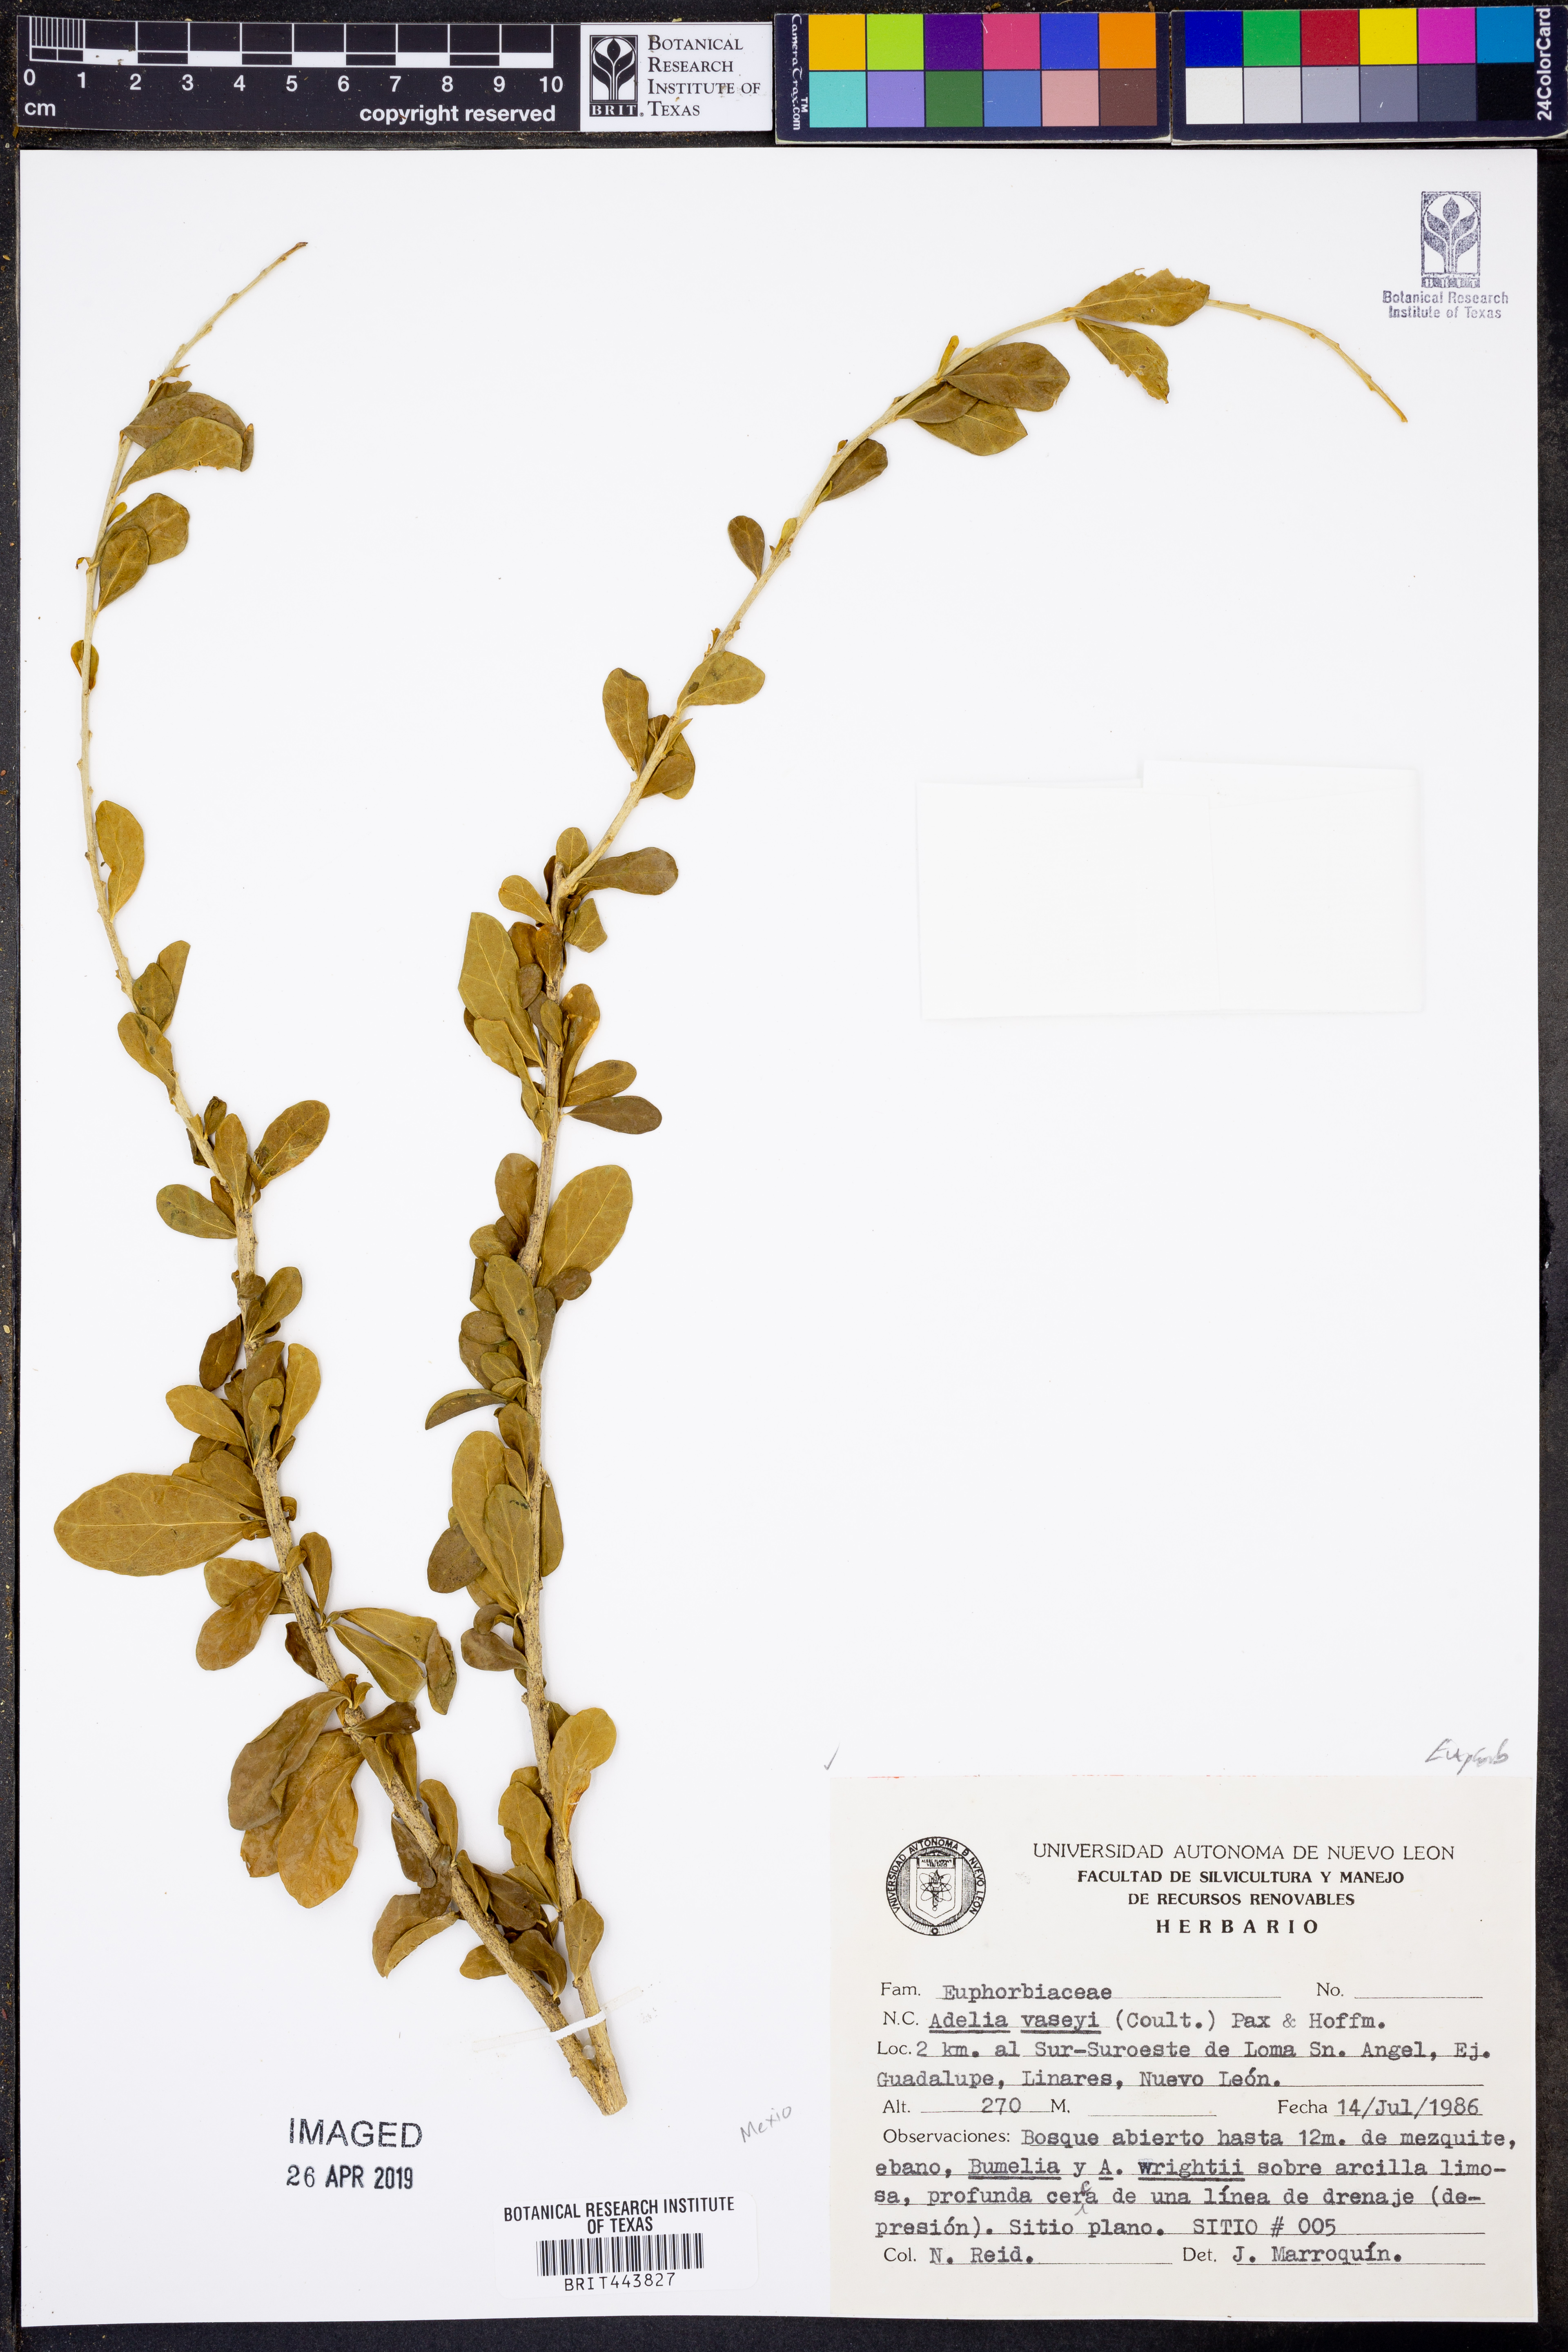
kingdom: Plantae
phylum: Tracheophyta
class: Magnoliopsida
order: Malpighiales
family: Euphorbiaceae
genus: Adelia
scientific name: Adelia vaseyi
